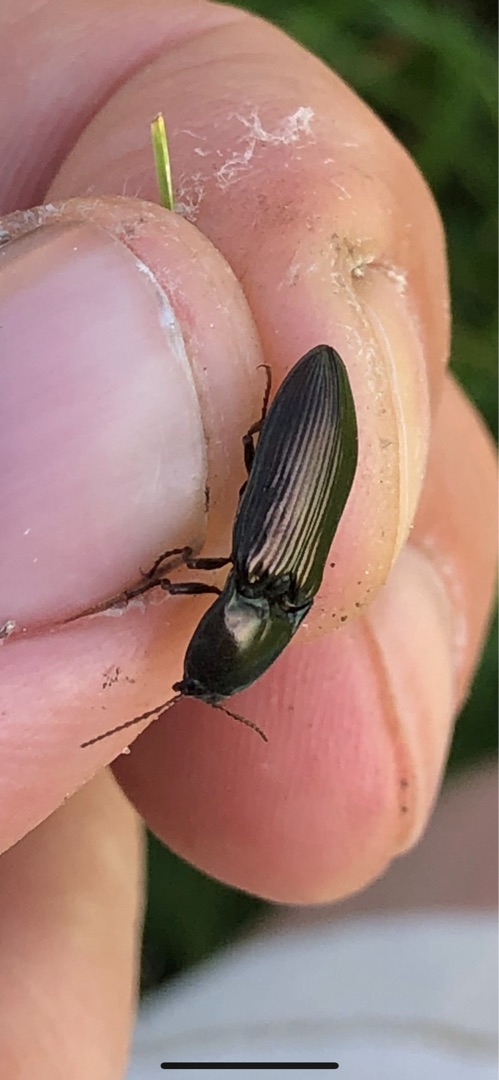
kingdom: Animalia
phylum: Arthropoda
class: Insecta
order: Coleoptera
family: Elateridae
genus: Selatosomus
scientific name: Selatosomus aeneus
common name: Kobbersmælder
